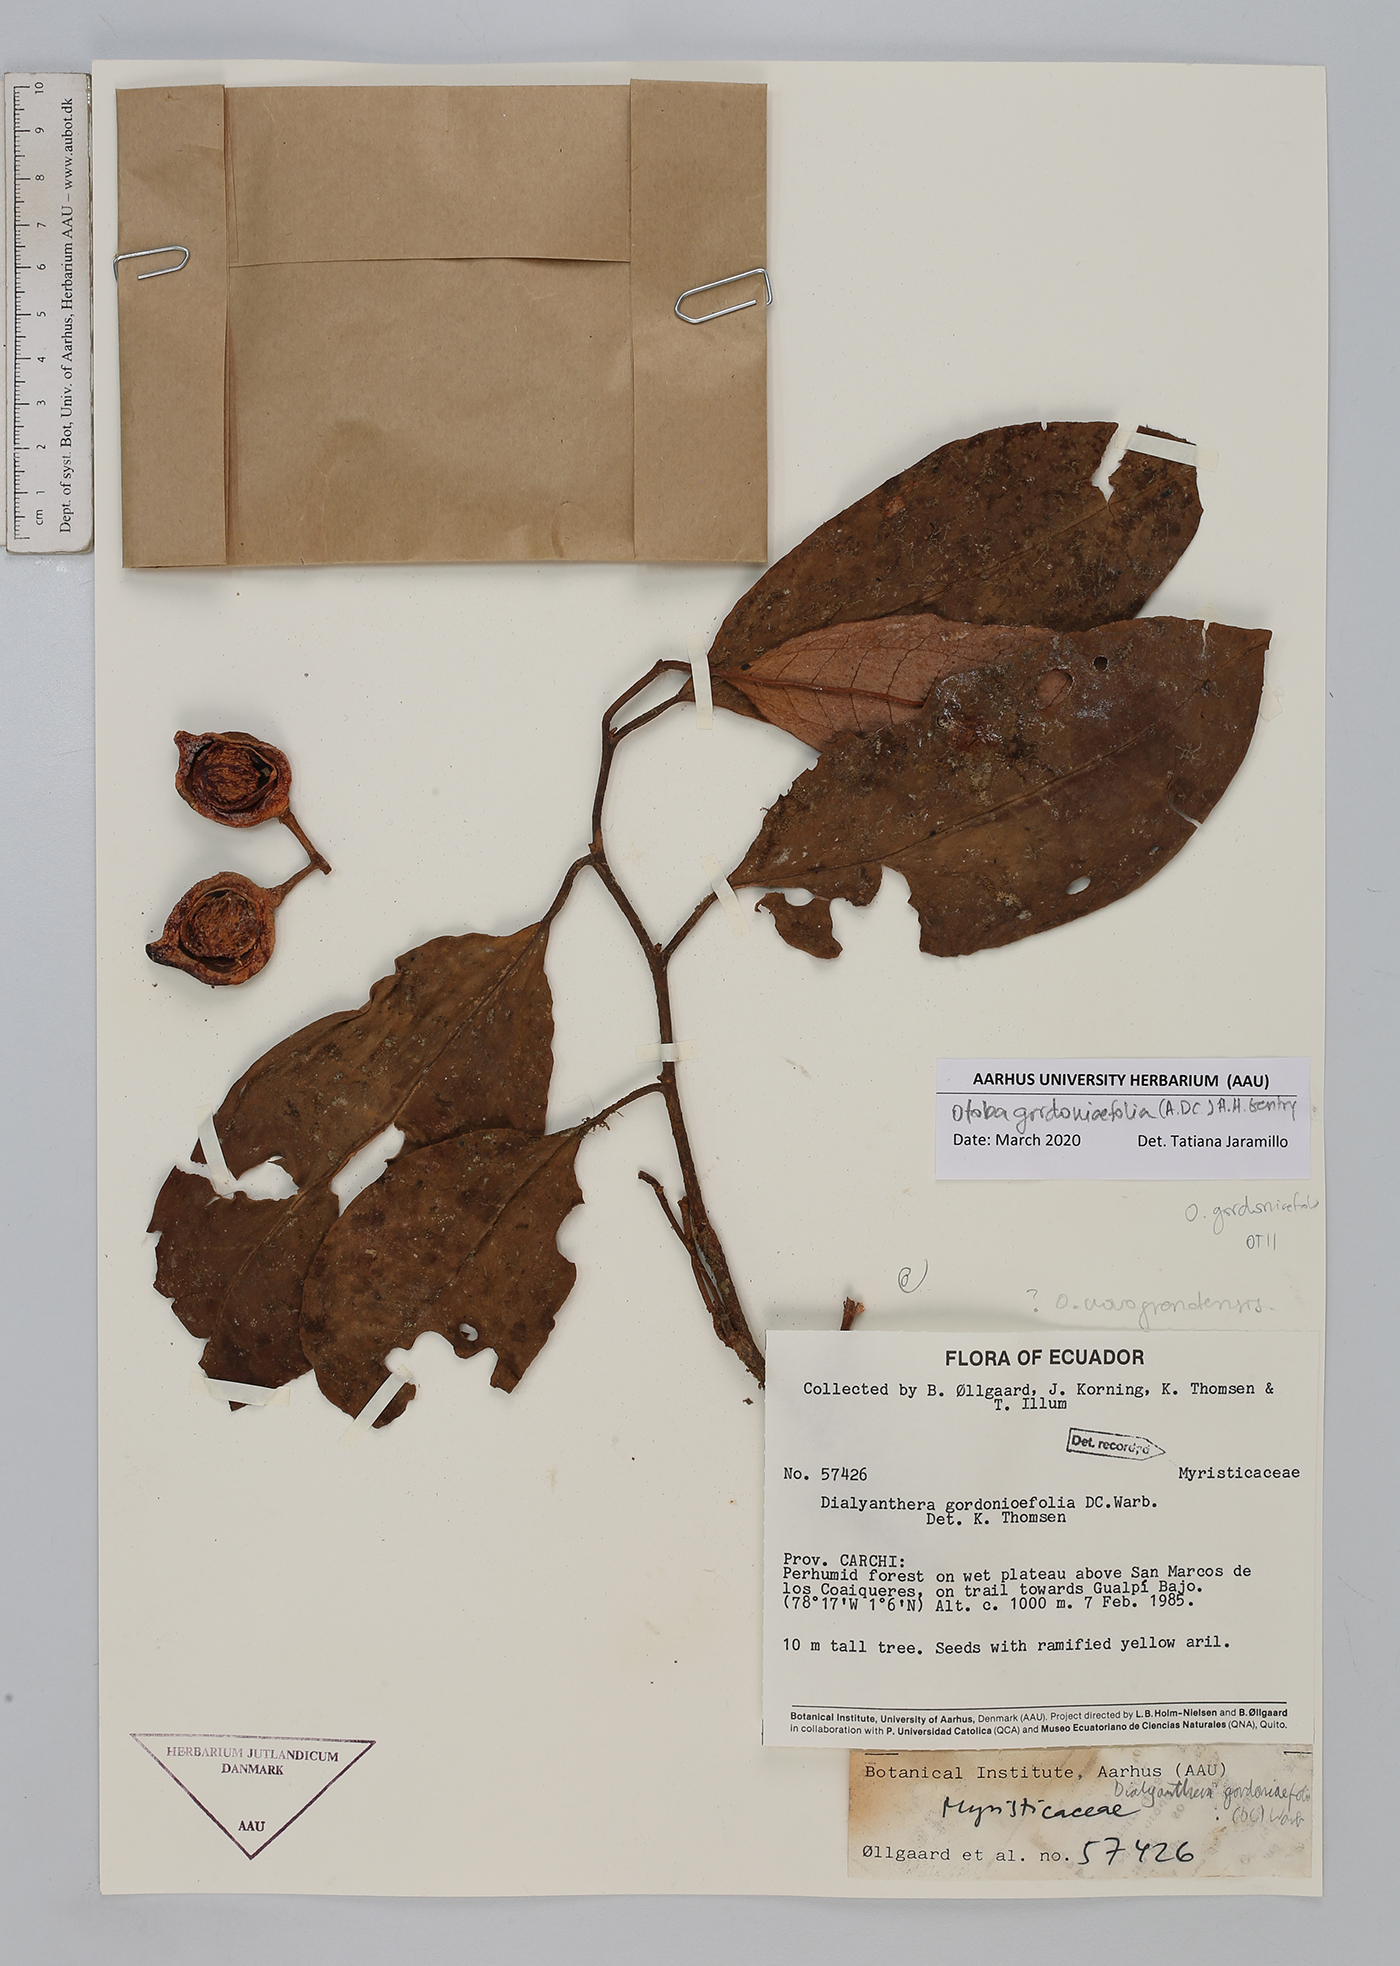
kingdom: Plantae
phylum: Tracheophyta
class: Magnoliopsida
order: Magnoliales
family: Myristicaceae
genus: Otoba
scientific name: Otoba gordoniifolia
